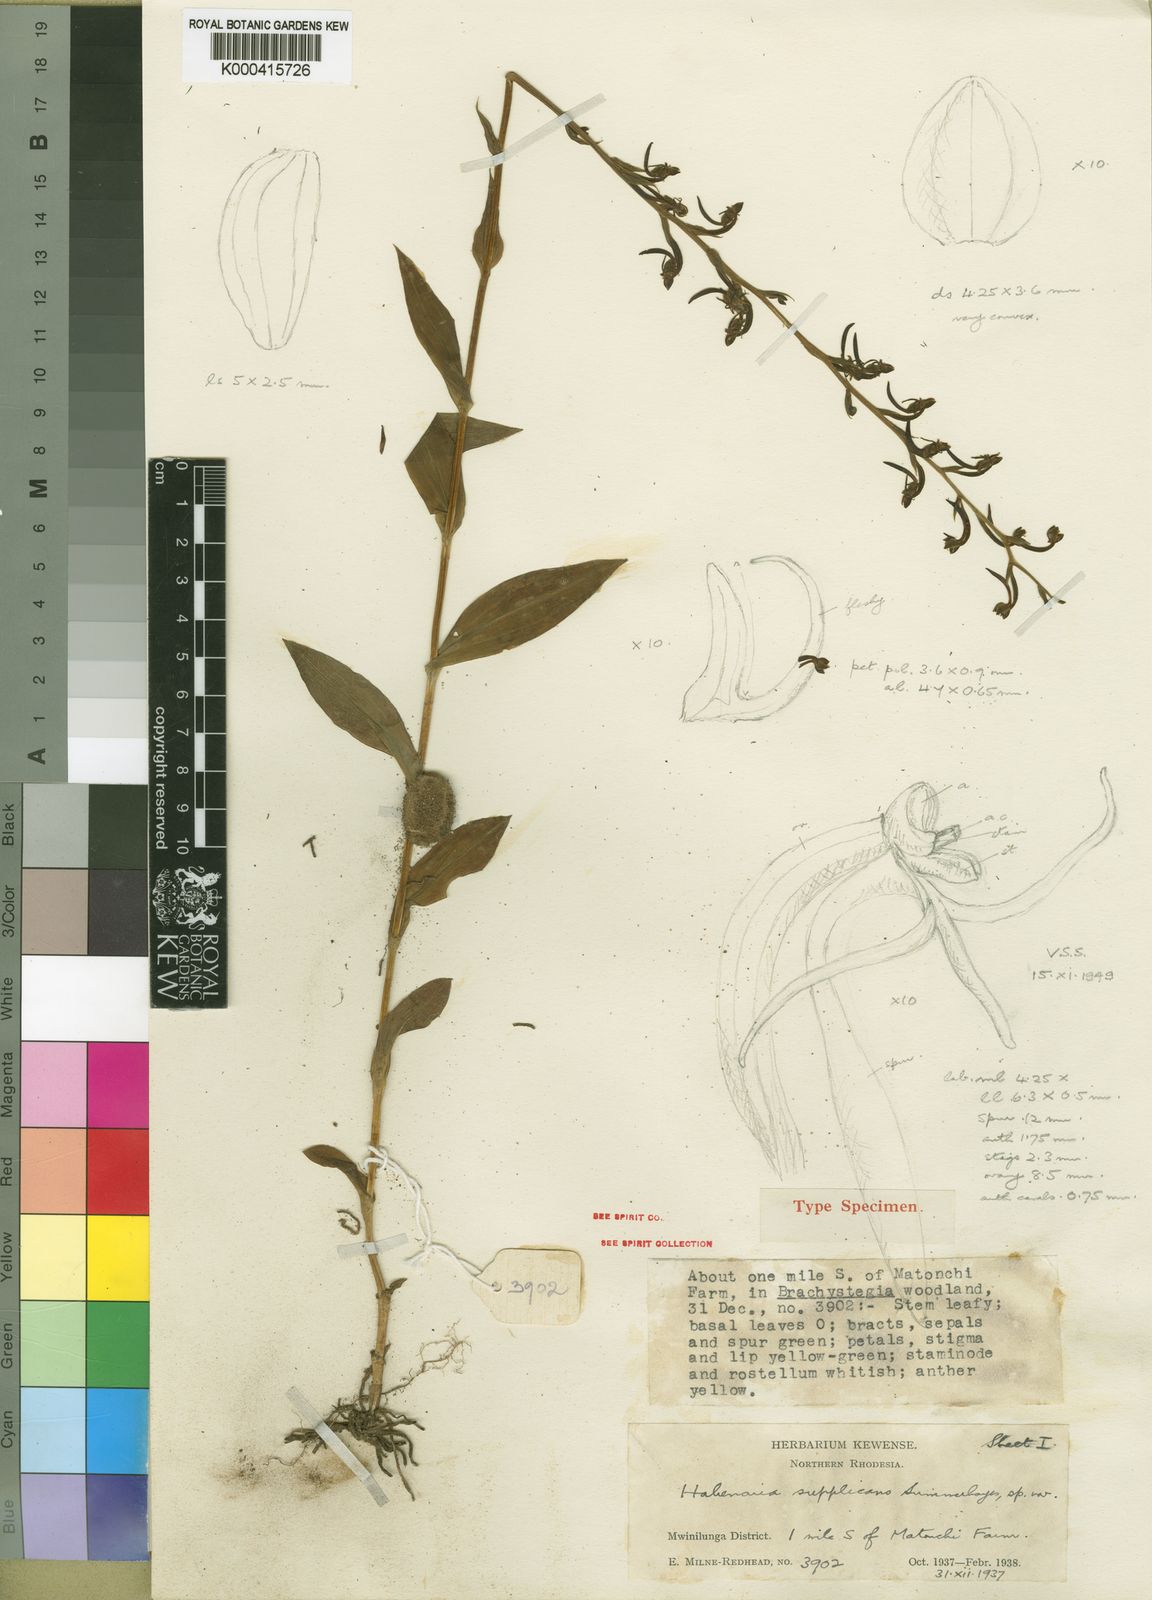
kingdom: Plantae
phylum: Tracheophyta
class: Liliopsida
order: Asparagales
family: Orchidaceae
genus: Habenaria
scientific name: Habenaria supplicans
